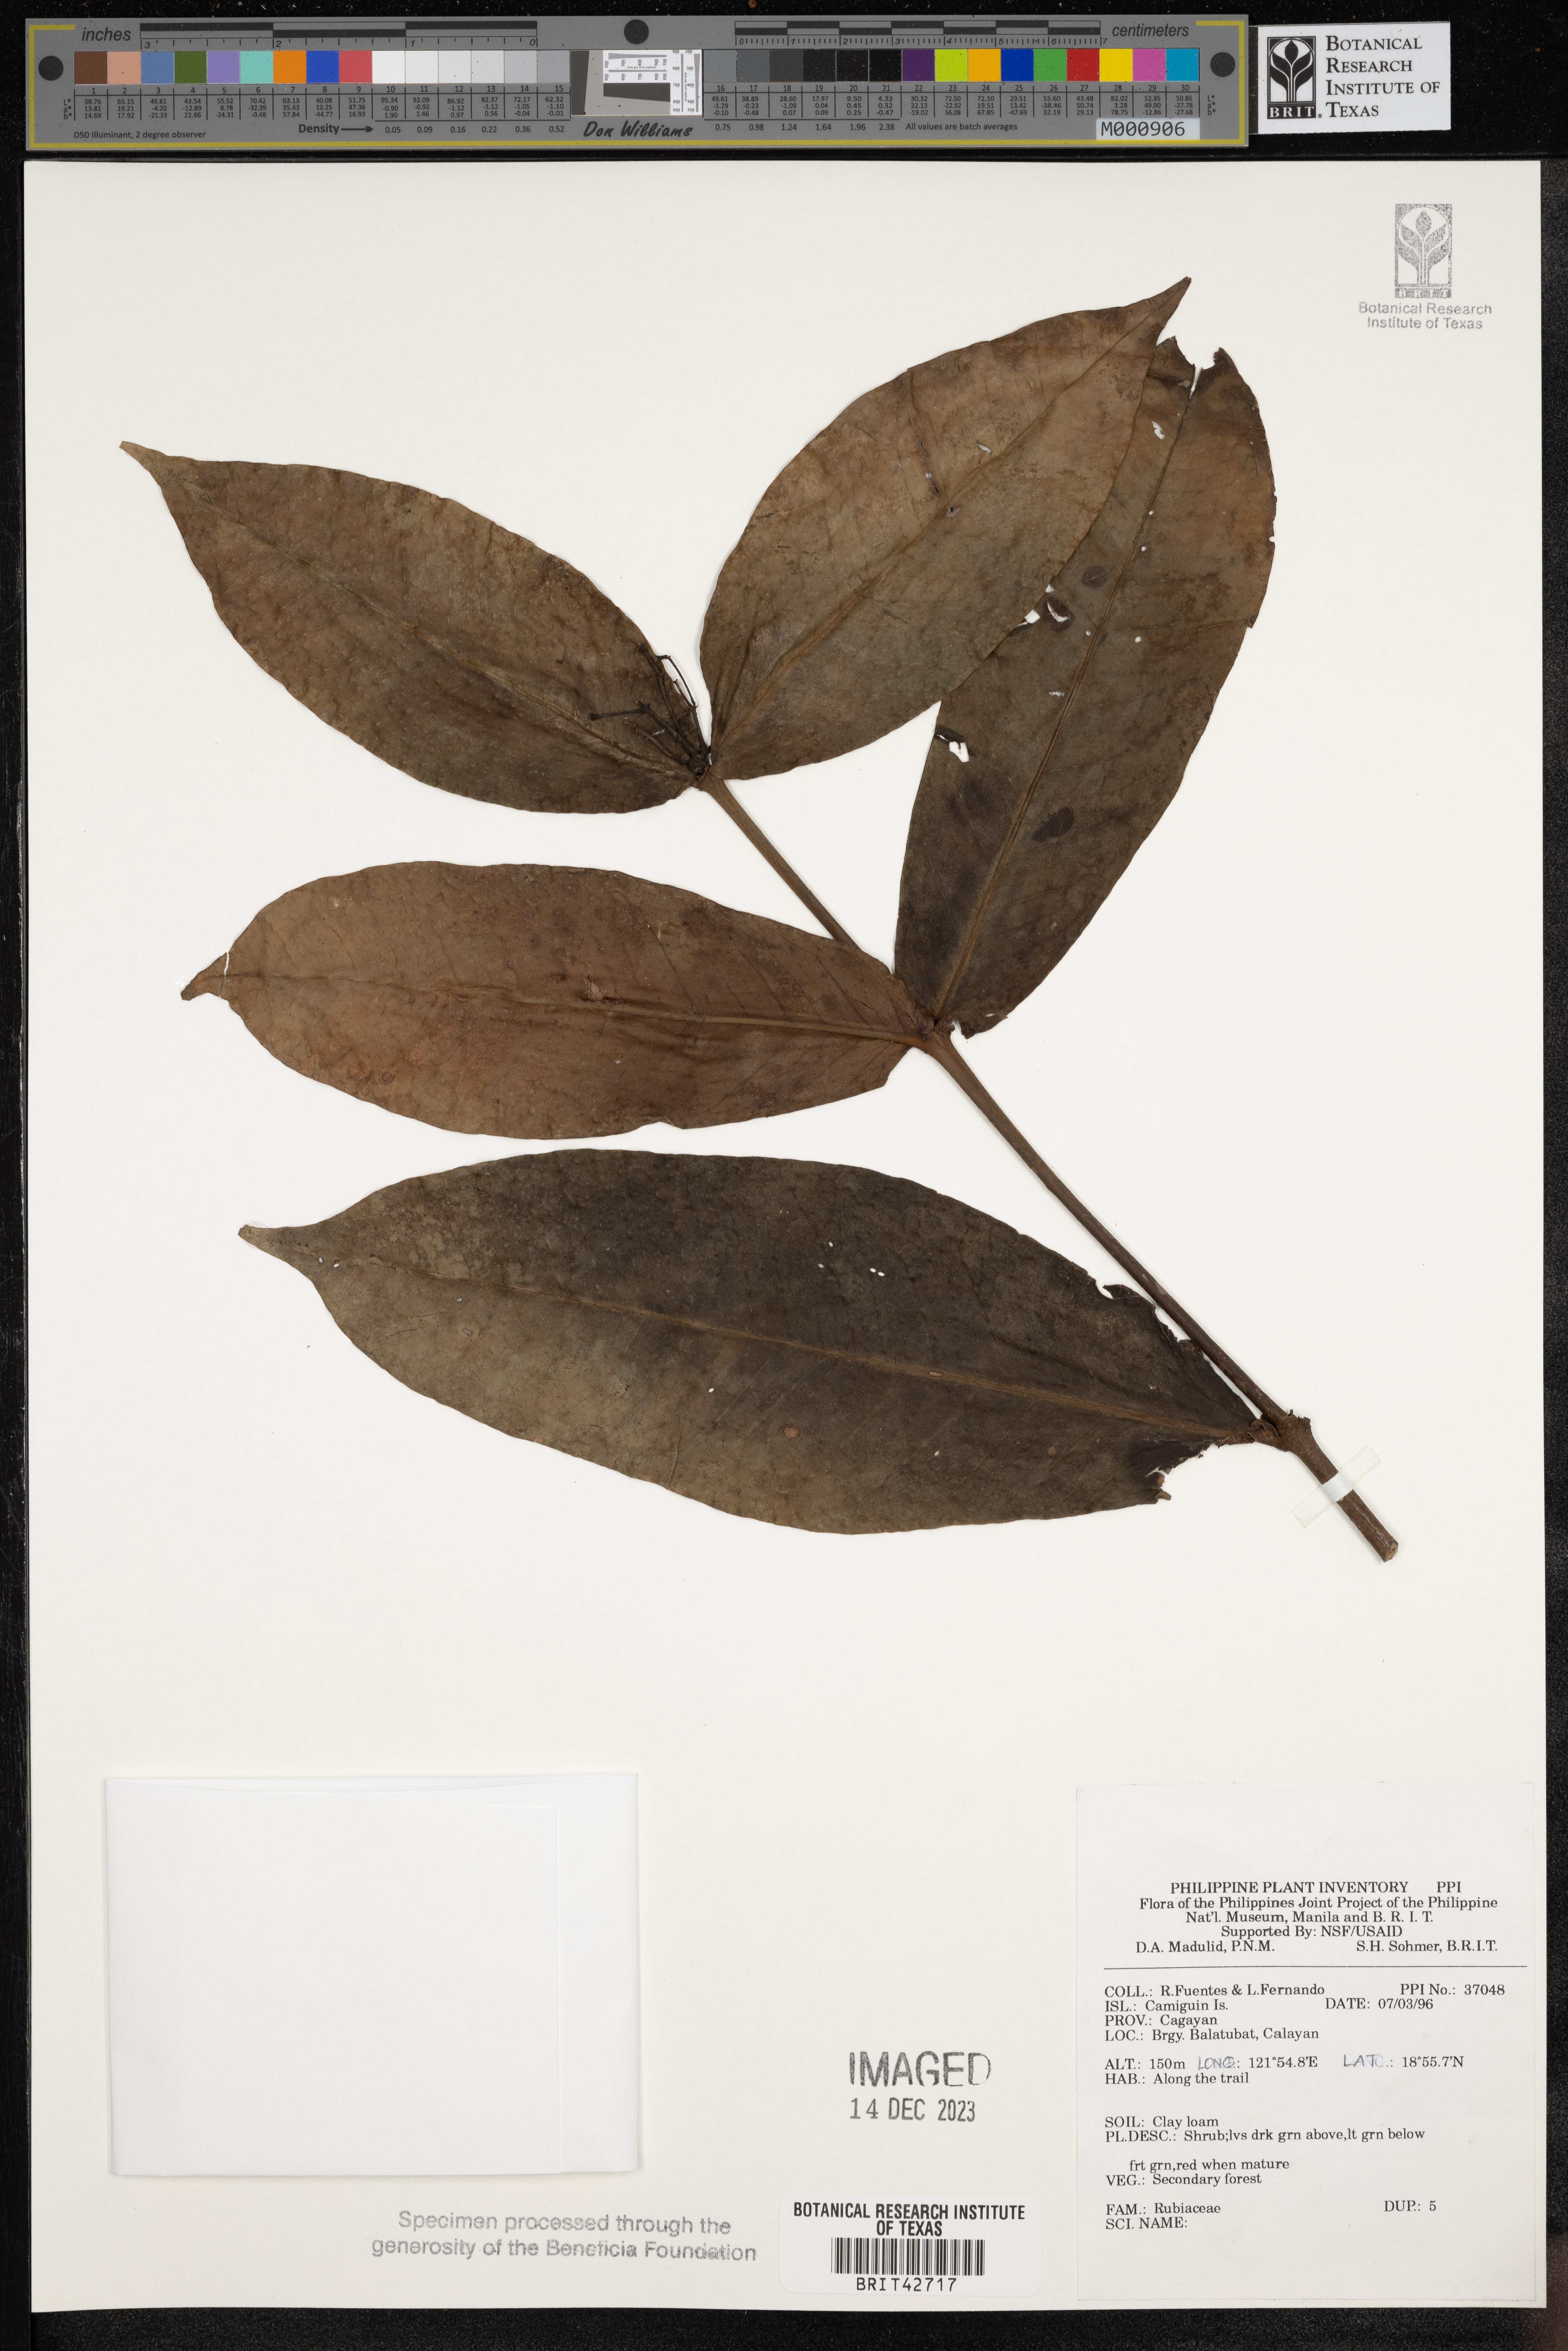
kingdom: Plantae
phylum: Tracheophyta
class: Magnoliopsida
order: Gentianales
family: Rubiaceae
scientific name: Rubiaceae
